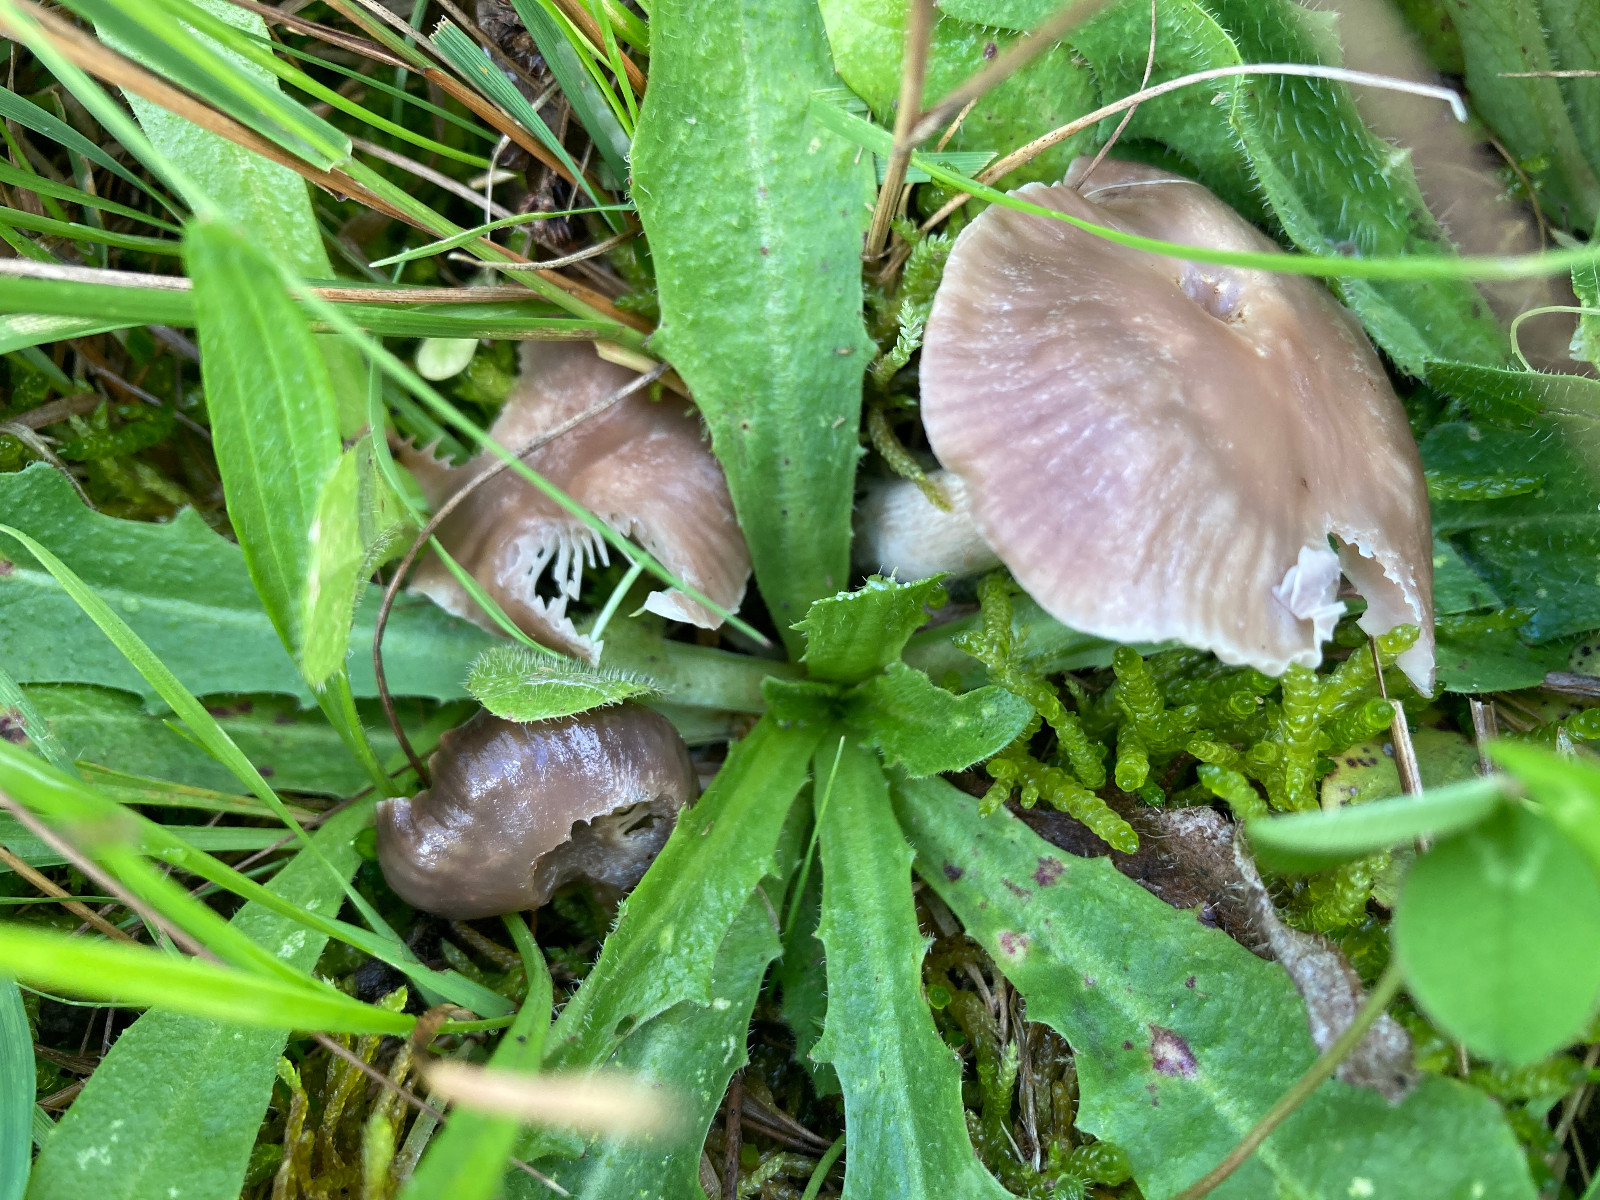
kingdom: Fungi
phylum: Basidiomycota
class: Agaricomycetes
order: Agaricales
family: Hygrophoraceae
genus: Cuphophyllus
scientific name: Cuphophyllus flavipes
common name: gulfodet vokshat
